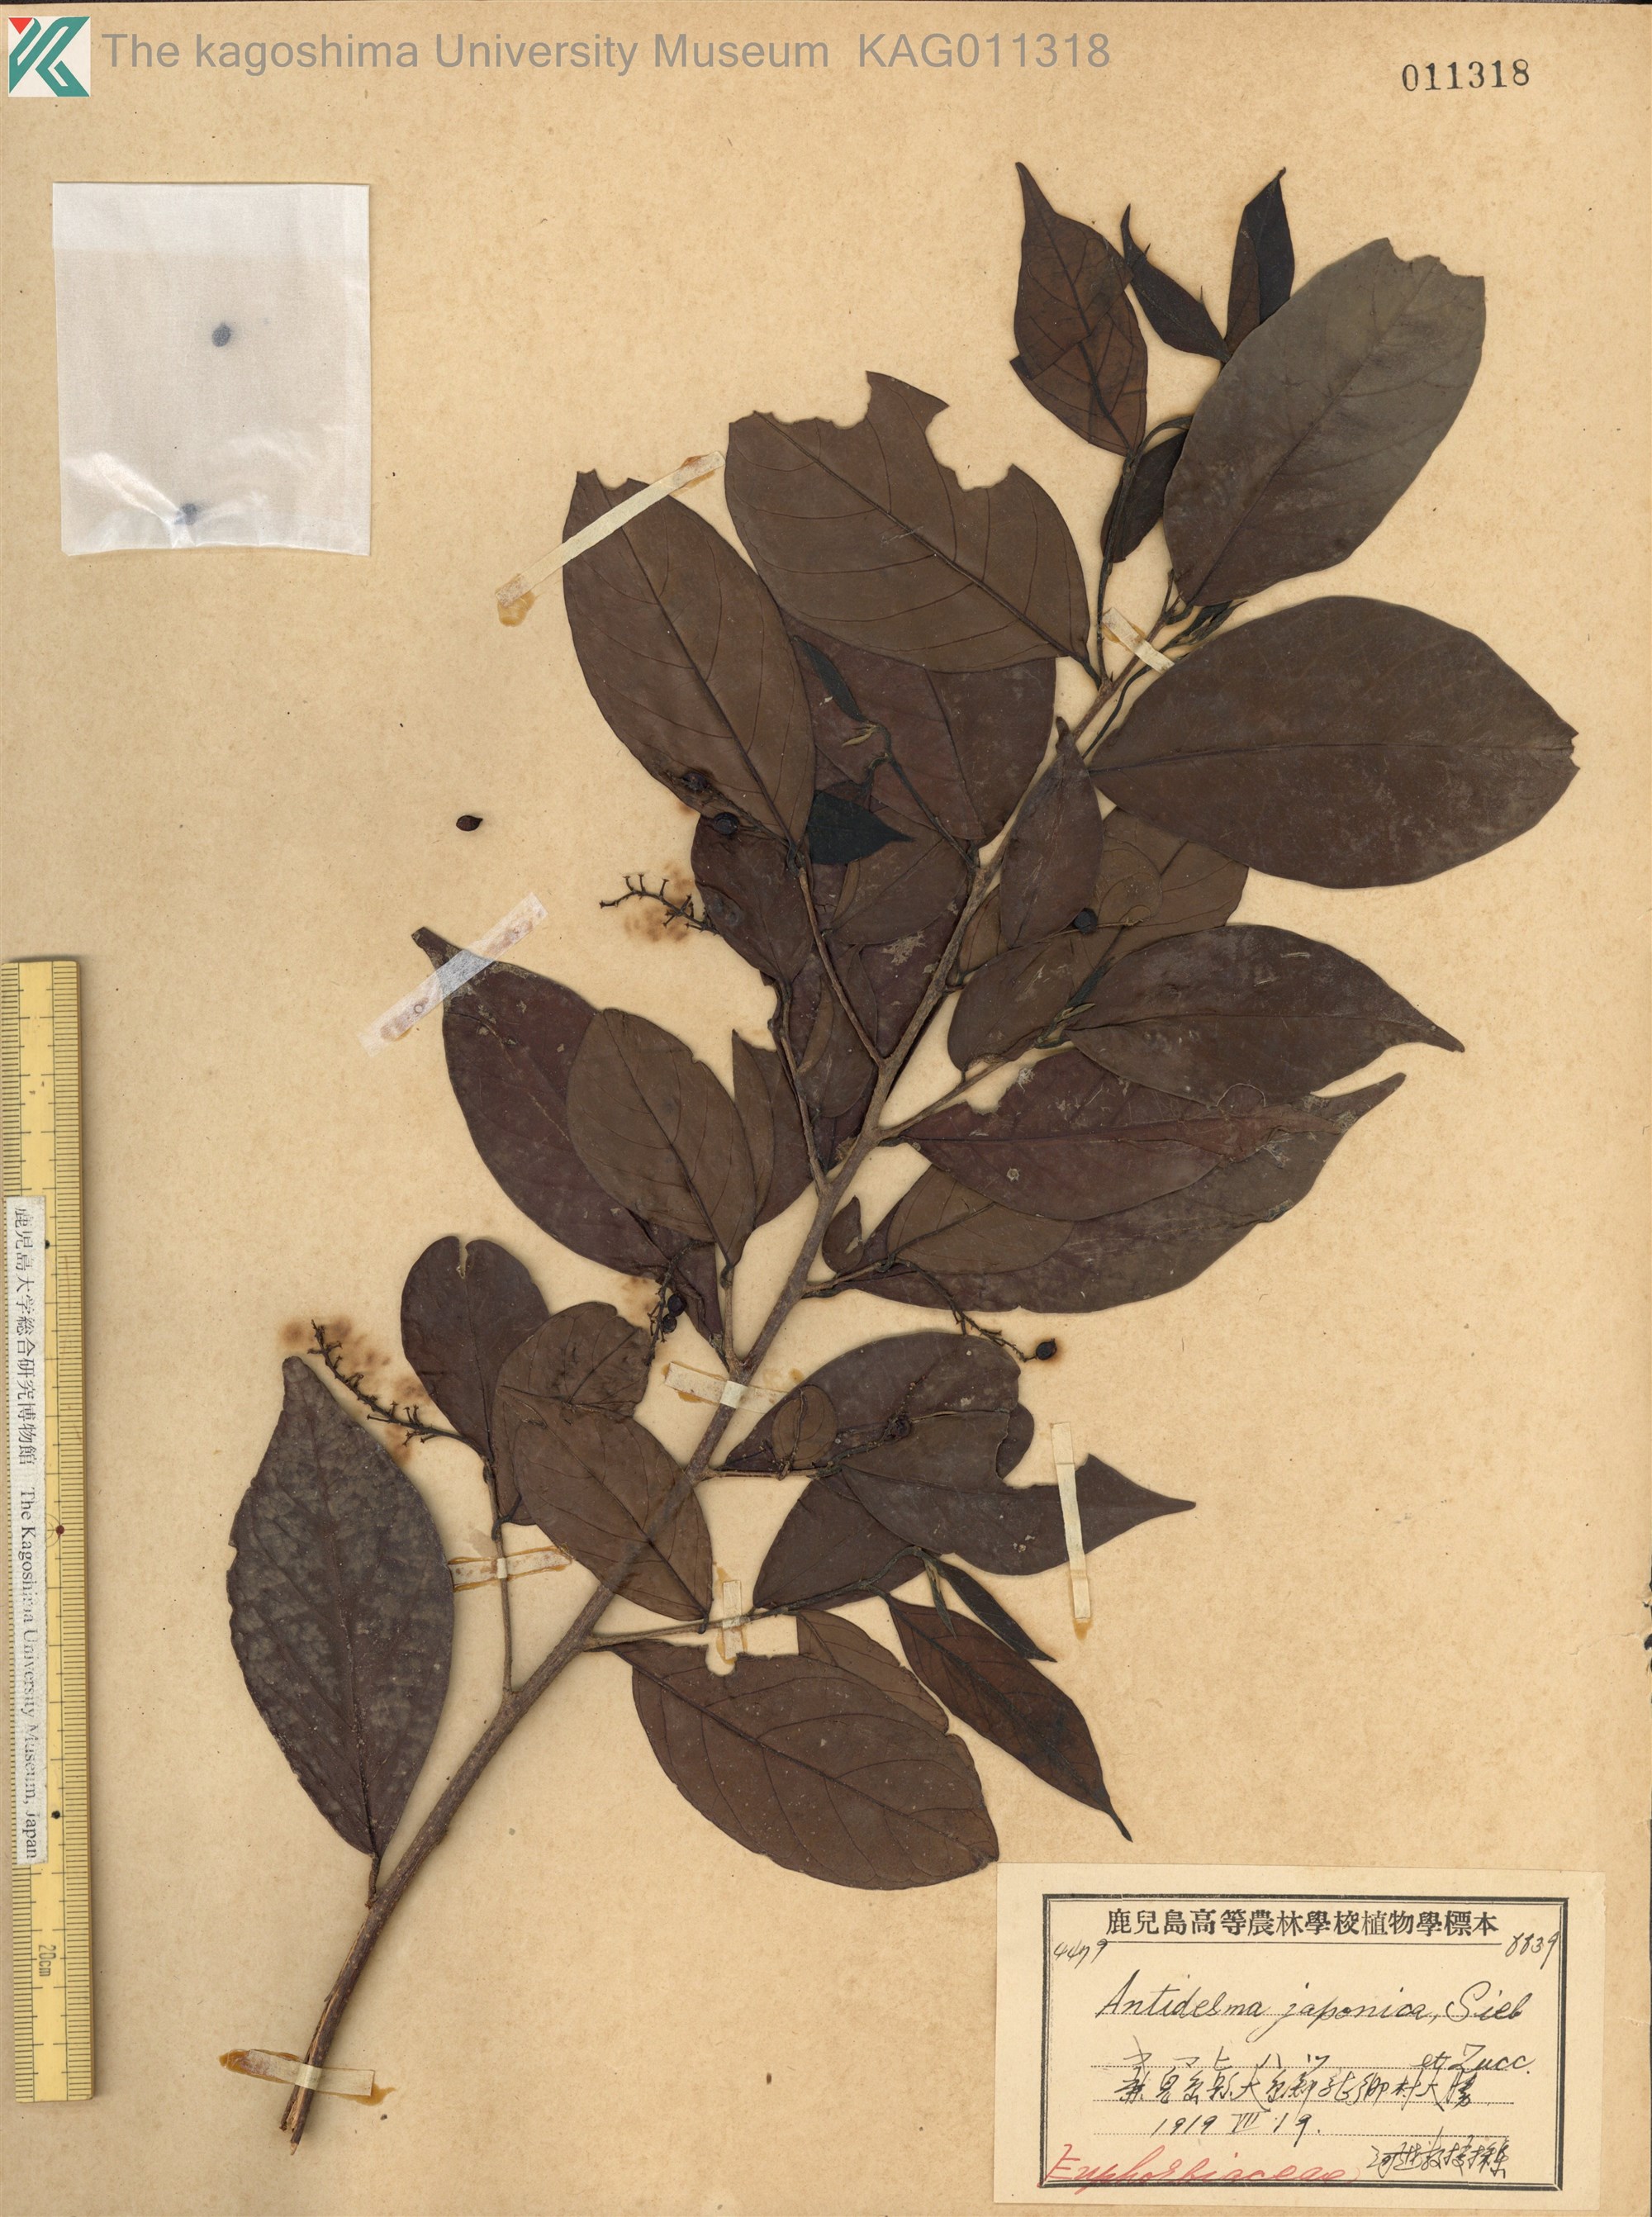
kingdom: Plantae
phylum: Tracheophyta
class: Magnoliopsida
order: Malpighiales
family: Phyllanthaceae
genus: Antidesma
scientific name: Antidesma japonicum
